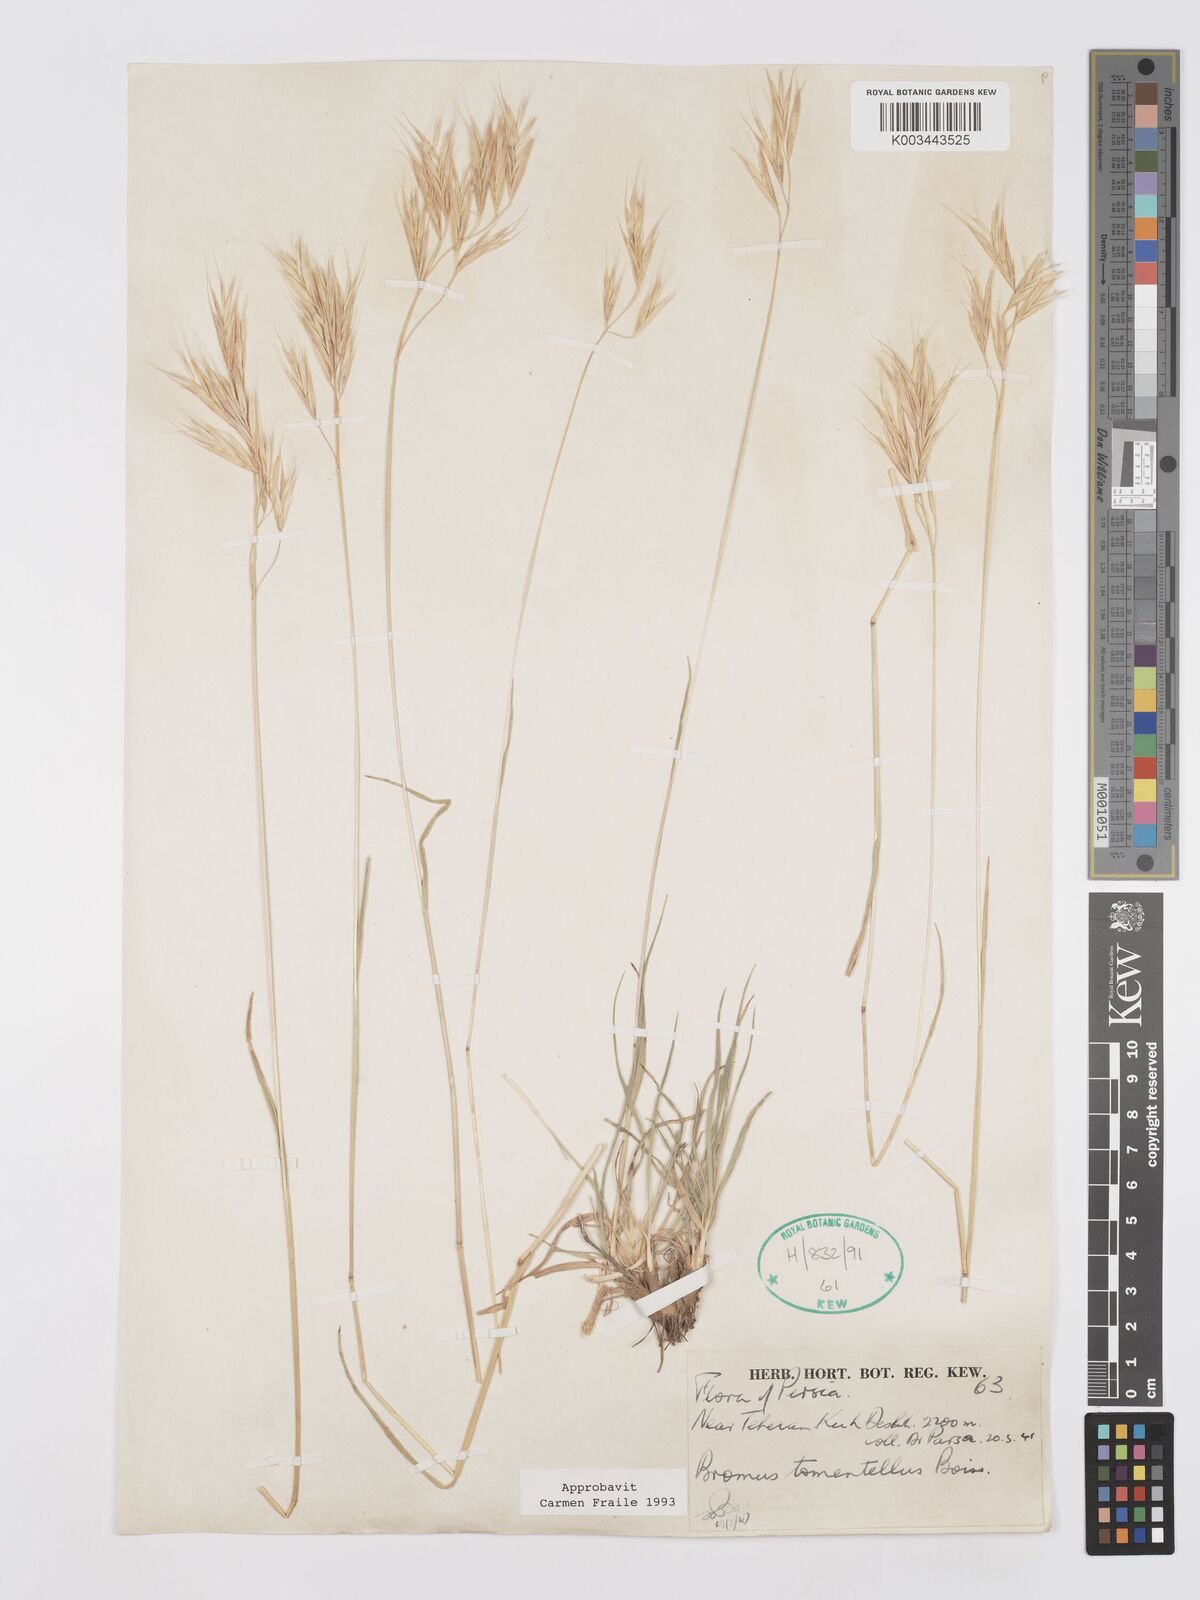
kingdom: Plantae
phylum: Tracheophyta
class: Liliopsida
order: Poales
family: Poaceae
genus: Bromus
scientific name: Bromus tomentellus
